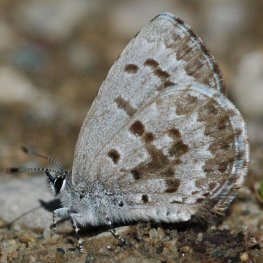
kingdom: Animalia
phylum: Arthropoda
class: Insecta
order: Lepidoptera
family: Lycaenidae
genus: Celastrina
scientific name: Celastrina lucia
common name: Northern Spring Azure
